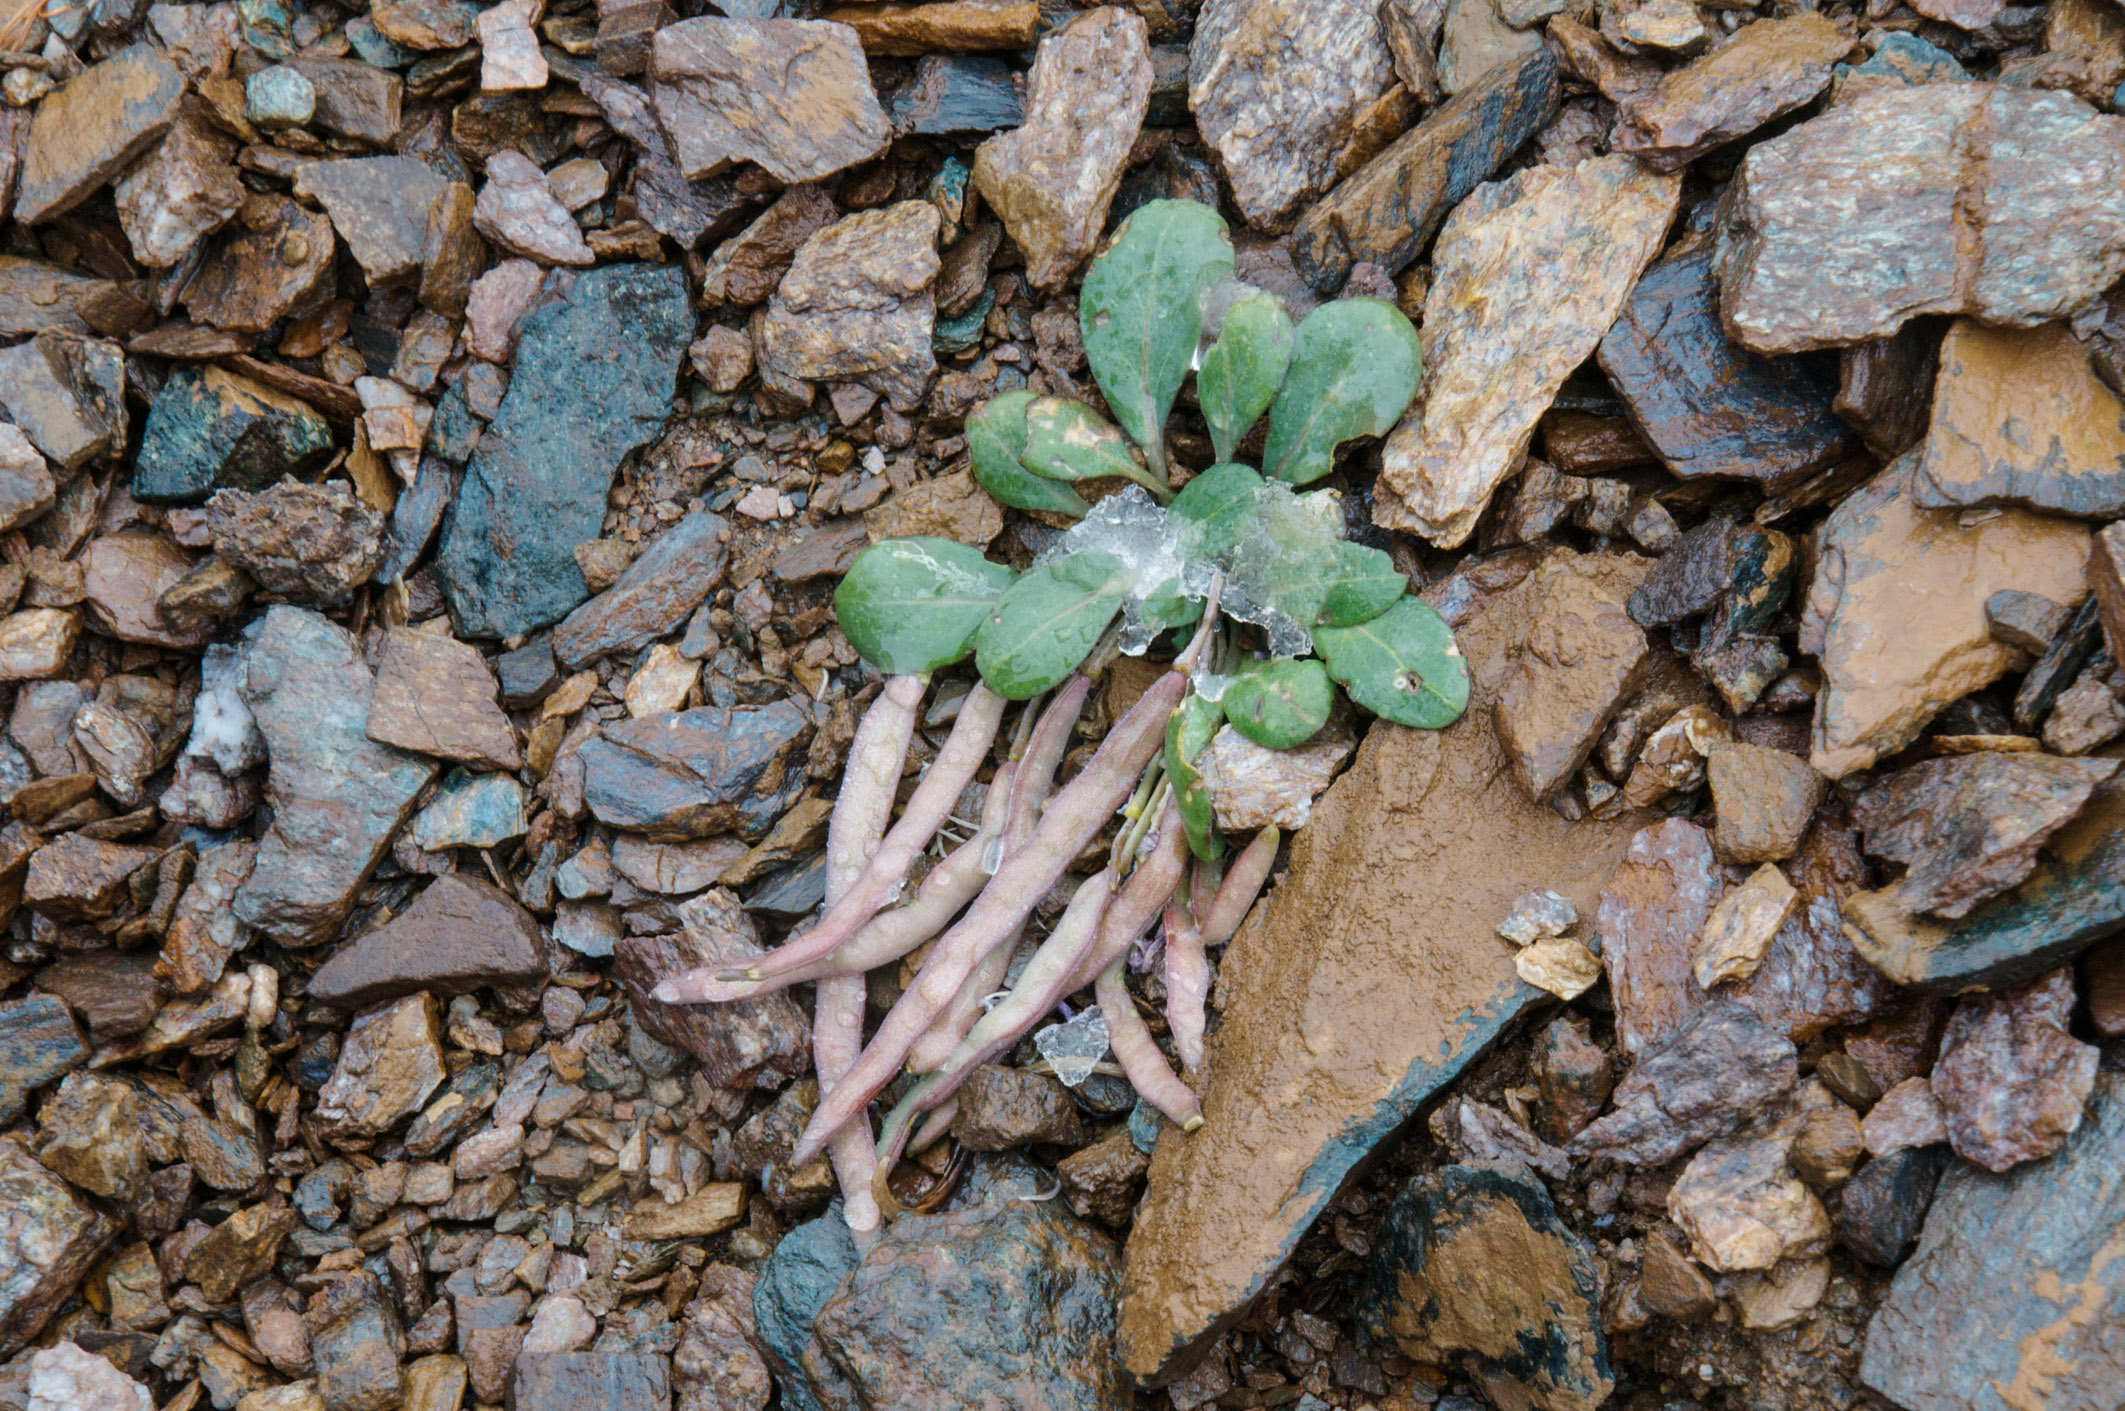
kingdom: Plantae
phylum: Tracheophyta
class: Magnoliopsida
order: Brassicales
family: Brassicaceae
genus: Leiospora
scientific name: Leiospora exscapa
